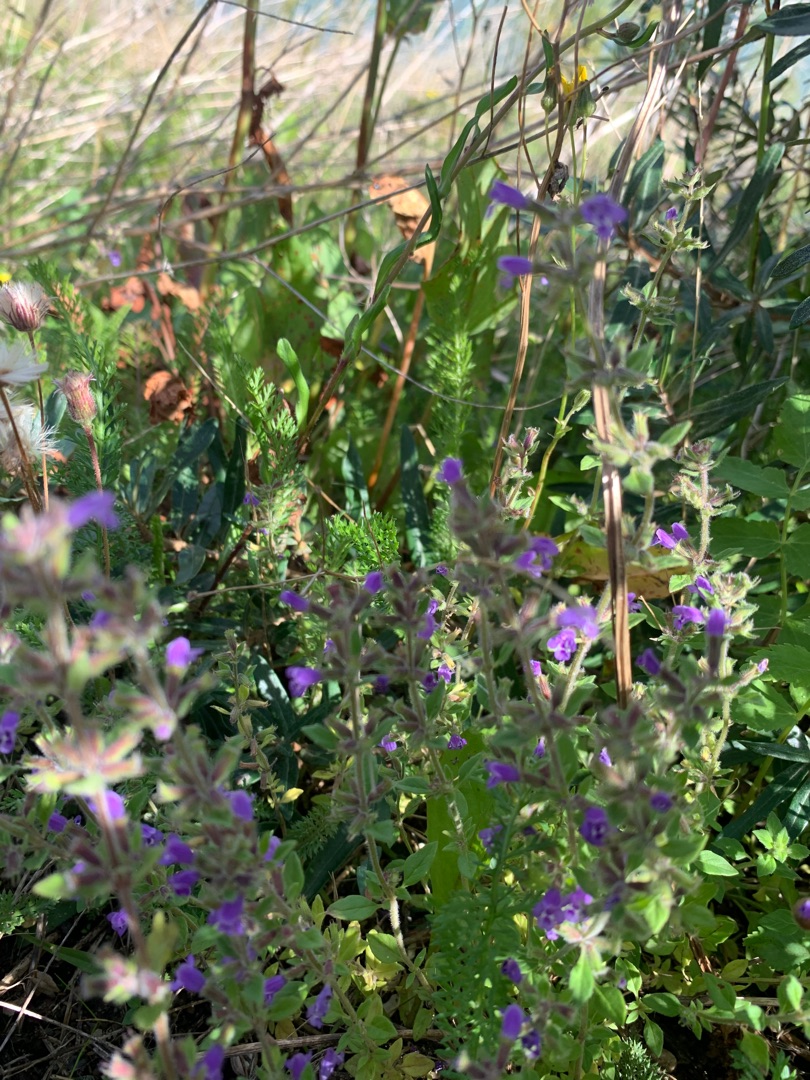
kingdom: Plantae
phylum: Tracheophyta
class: Magnoliopsida
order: Lamiales
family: Lamiaceae
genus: Clinopodium
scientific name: Clinopodium acinos
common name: Voldtimian
